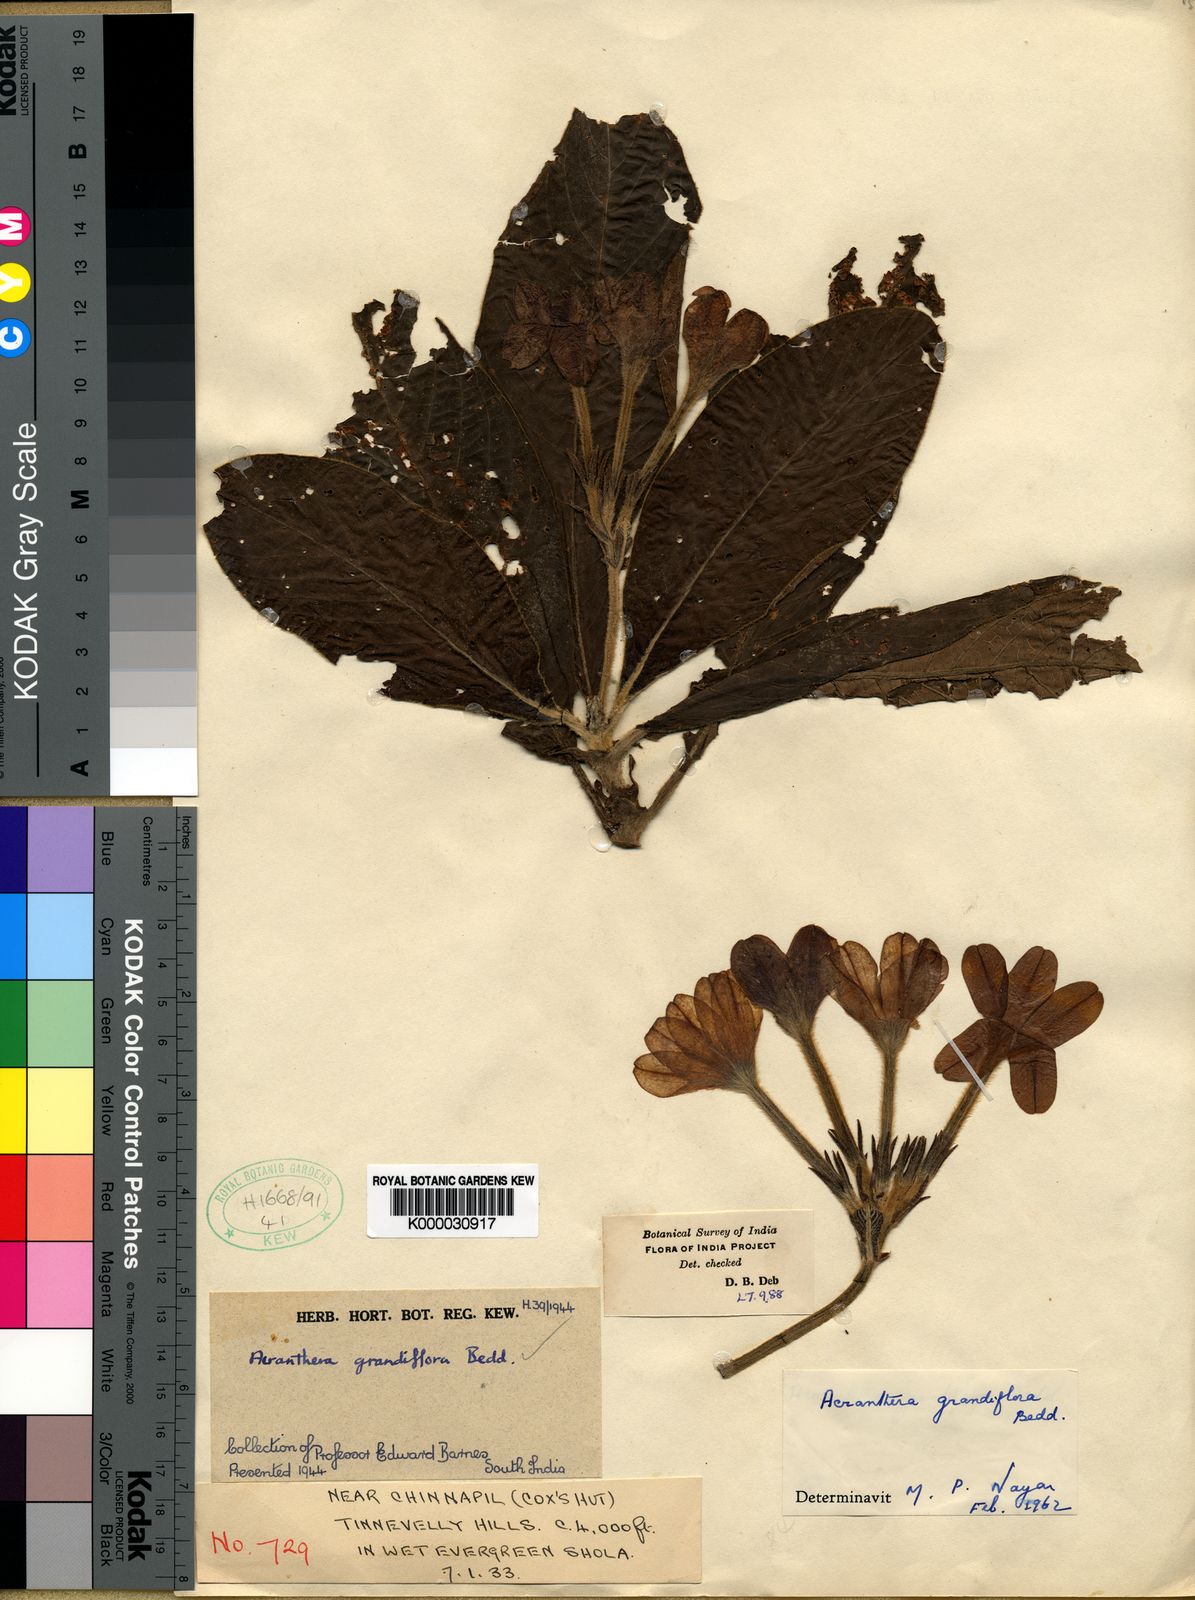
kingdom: Plantae
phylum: Tracheophyta
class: Magnoliopsida
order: Gentianales
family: Rubiaceae
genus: Acranthera
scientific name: Acranthera grandiflora
